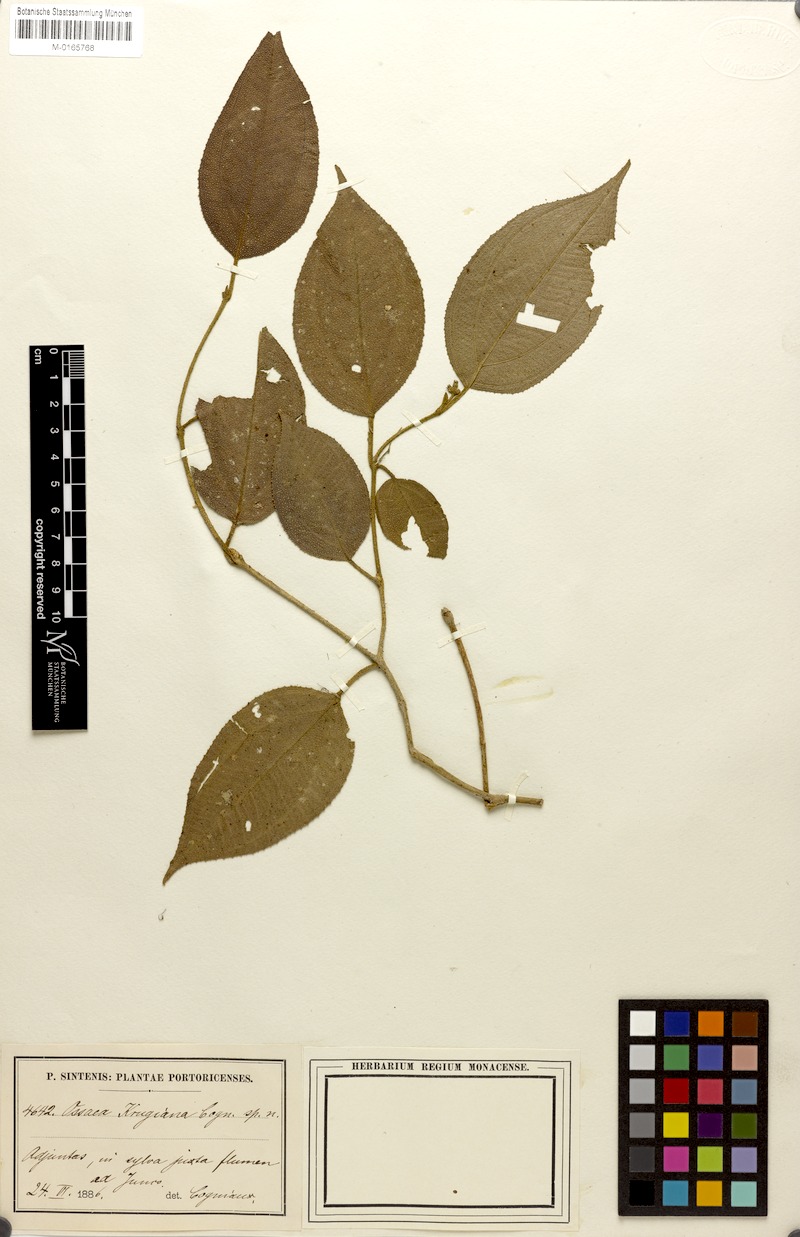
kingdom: Plantae
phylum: Tracheophyta
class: Magnoliopsida
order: Myrtales
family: Melastomataceae
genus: Miconia
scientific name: Miconia krugiana
